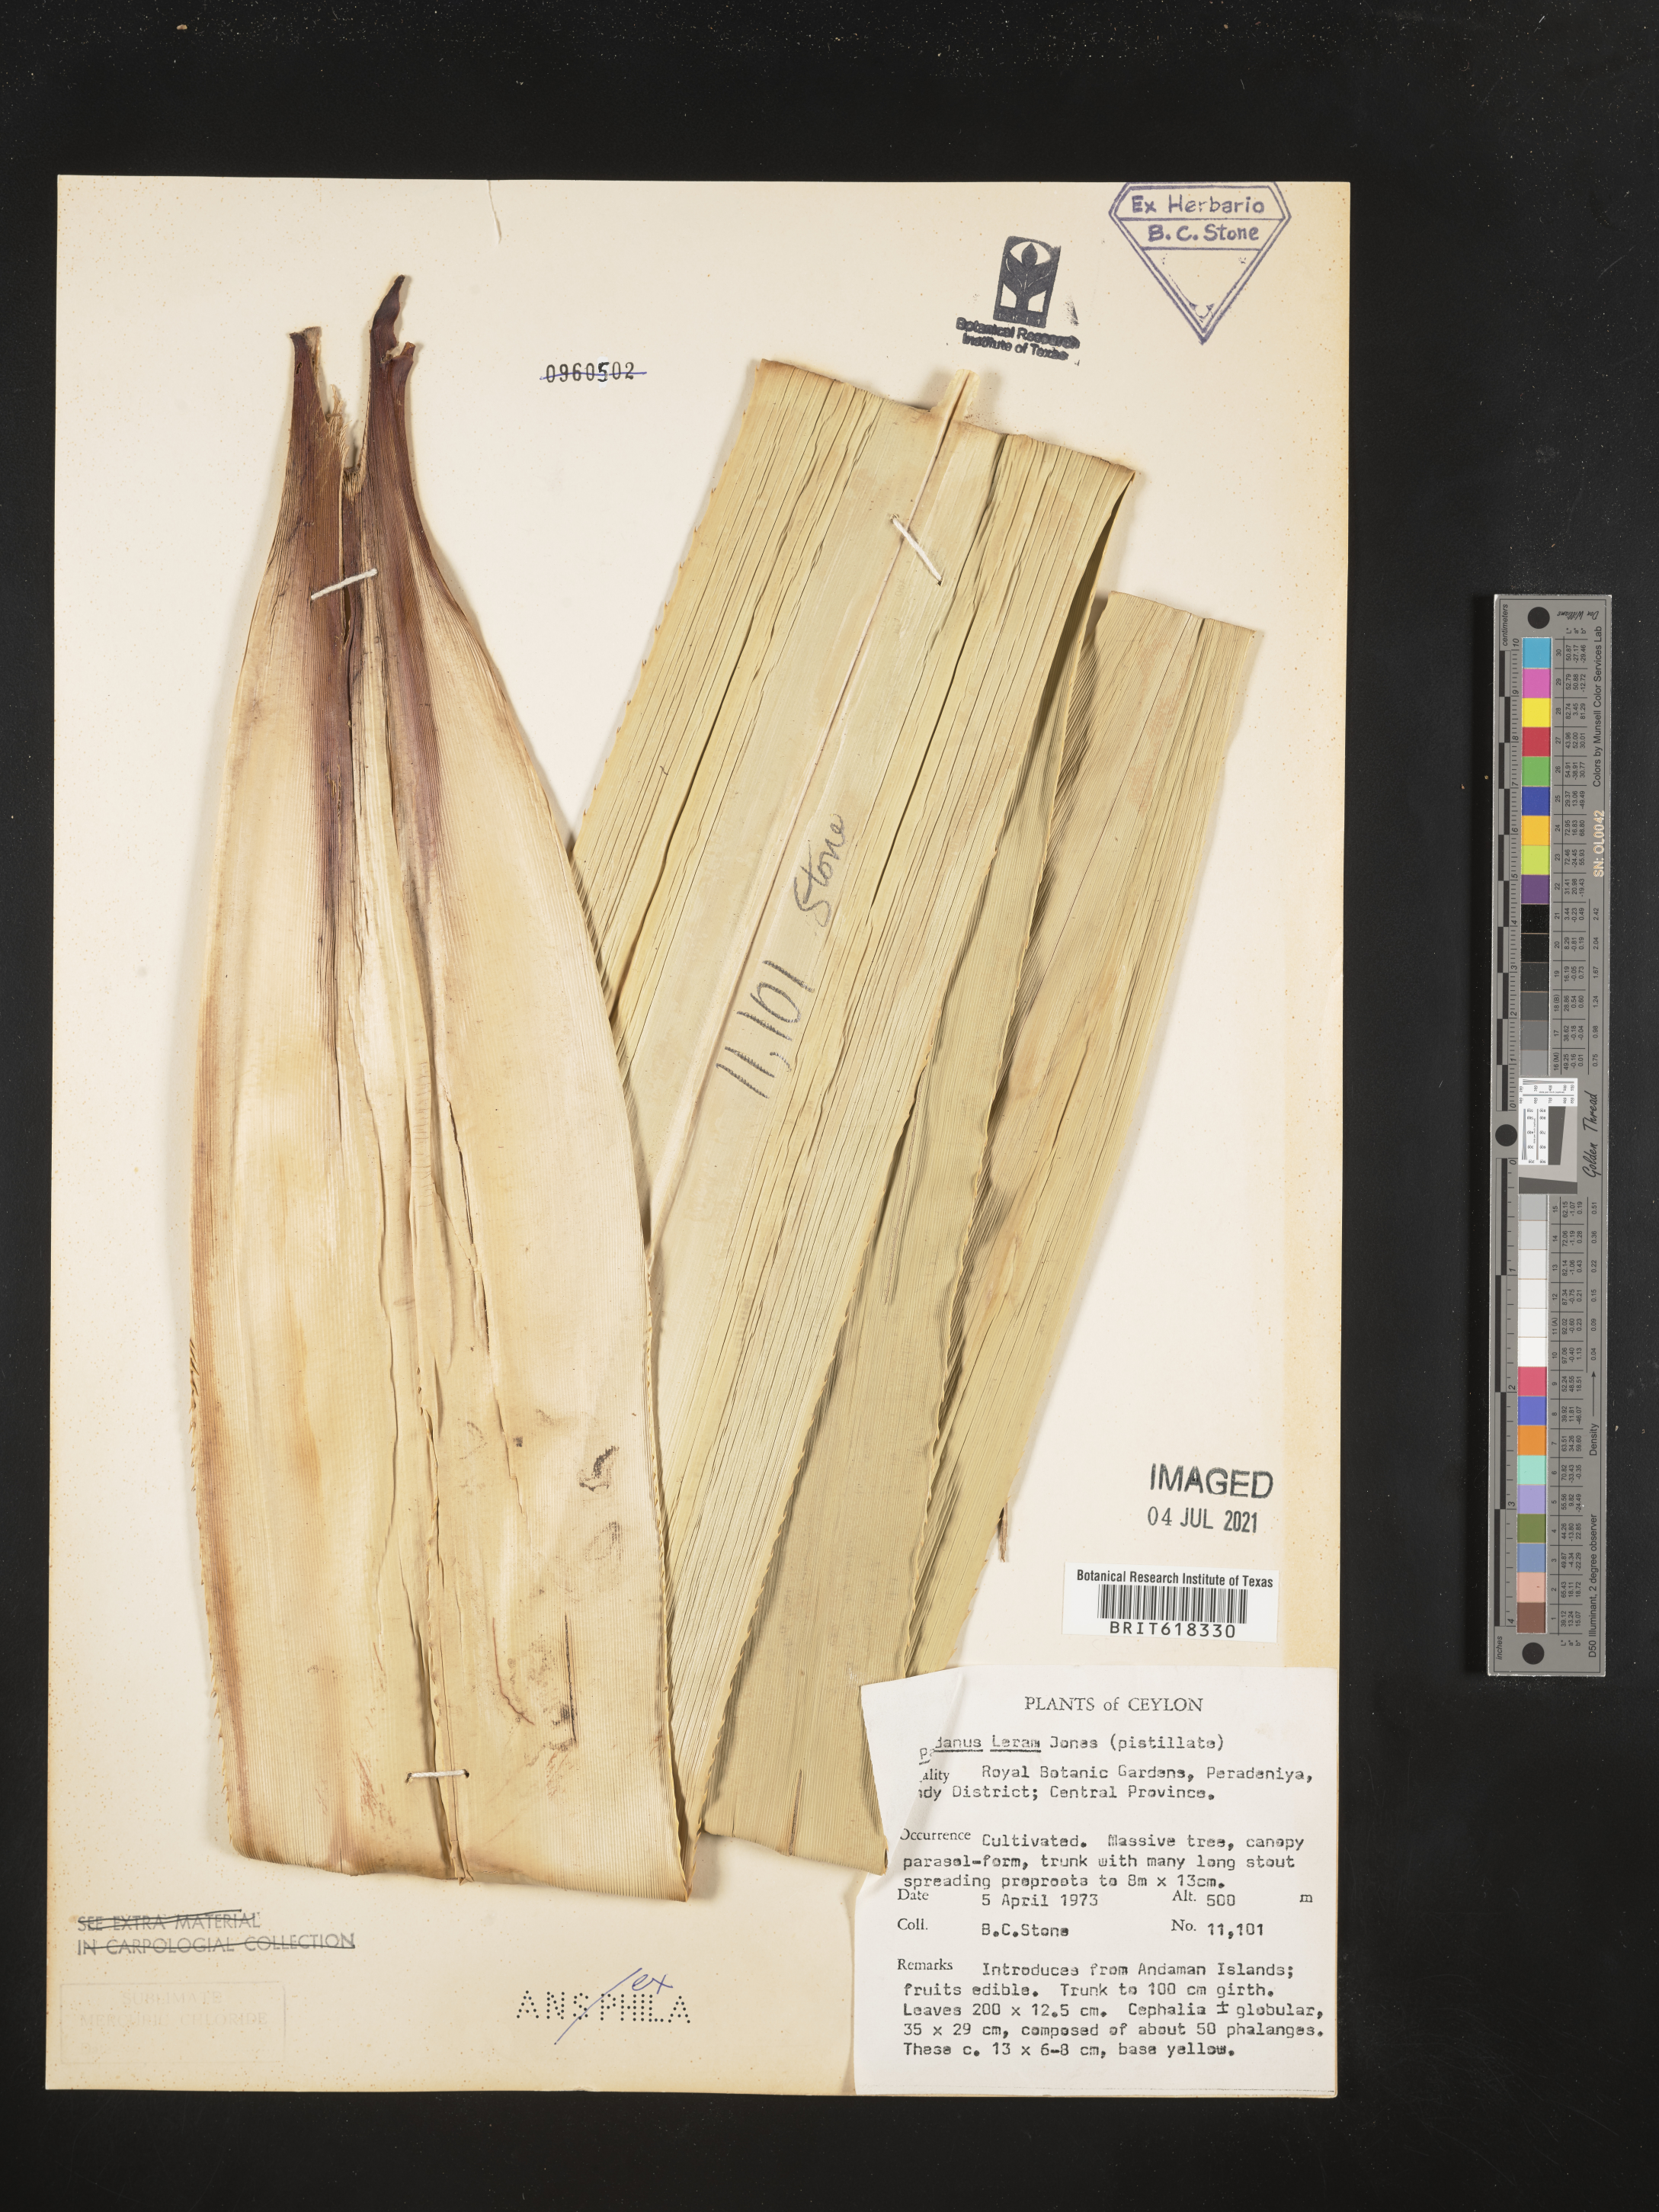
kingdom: Plantae
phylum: Tracheophyta
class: Liliopsida
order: Pandanales
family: Pandanaceae
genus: Pandanus
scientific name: Pandanus leram
